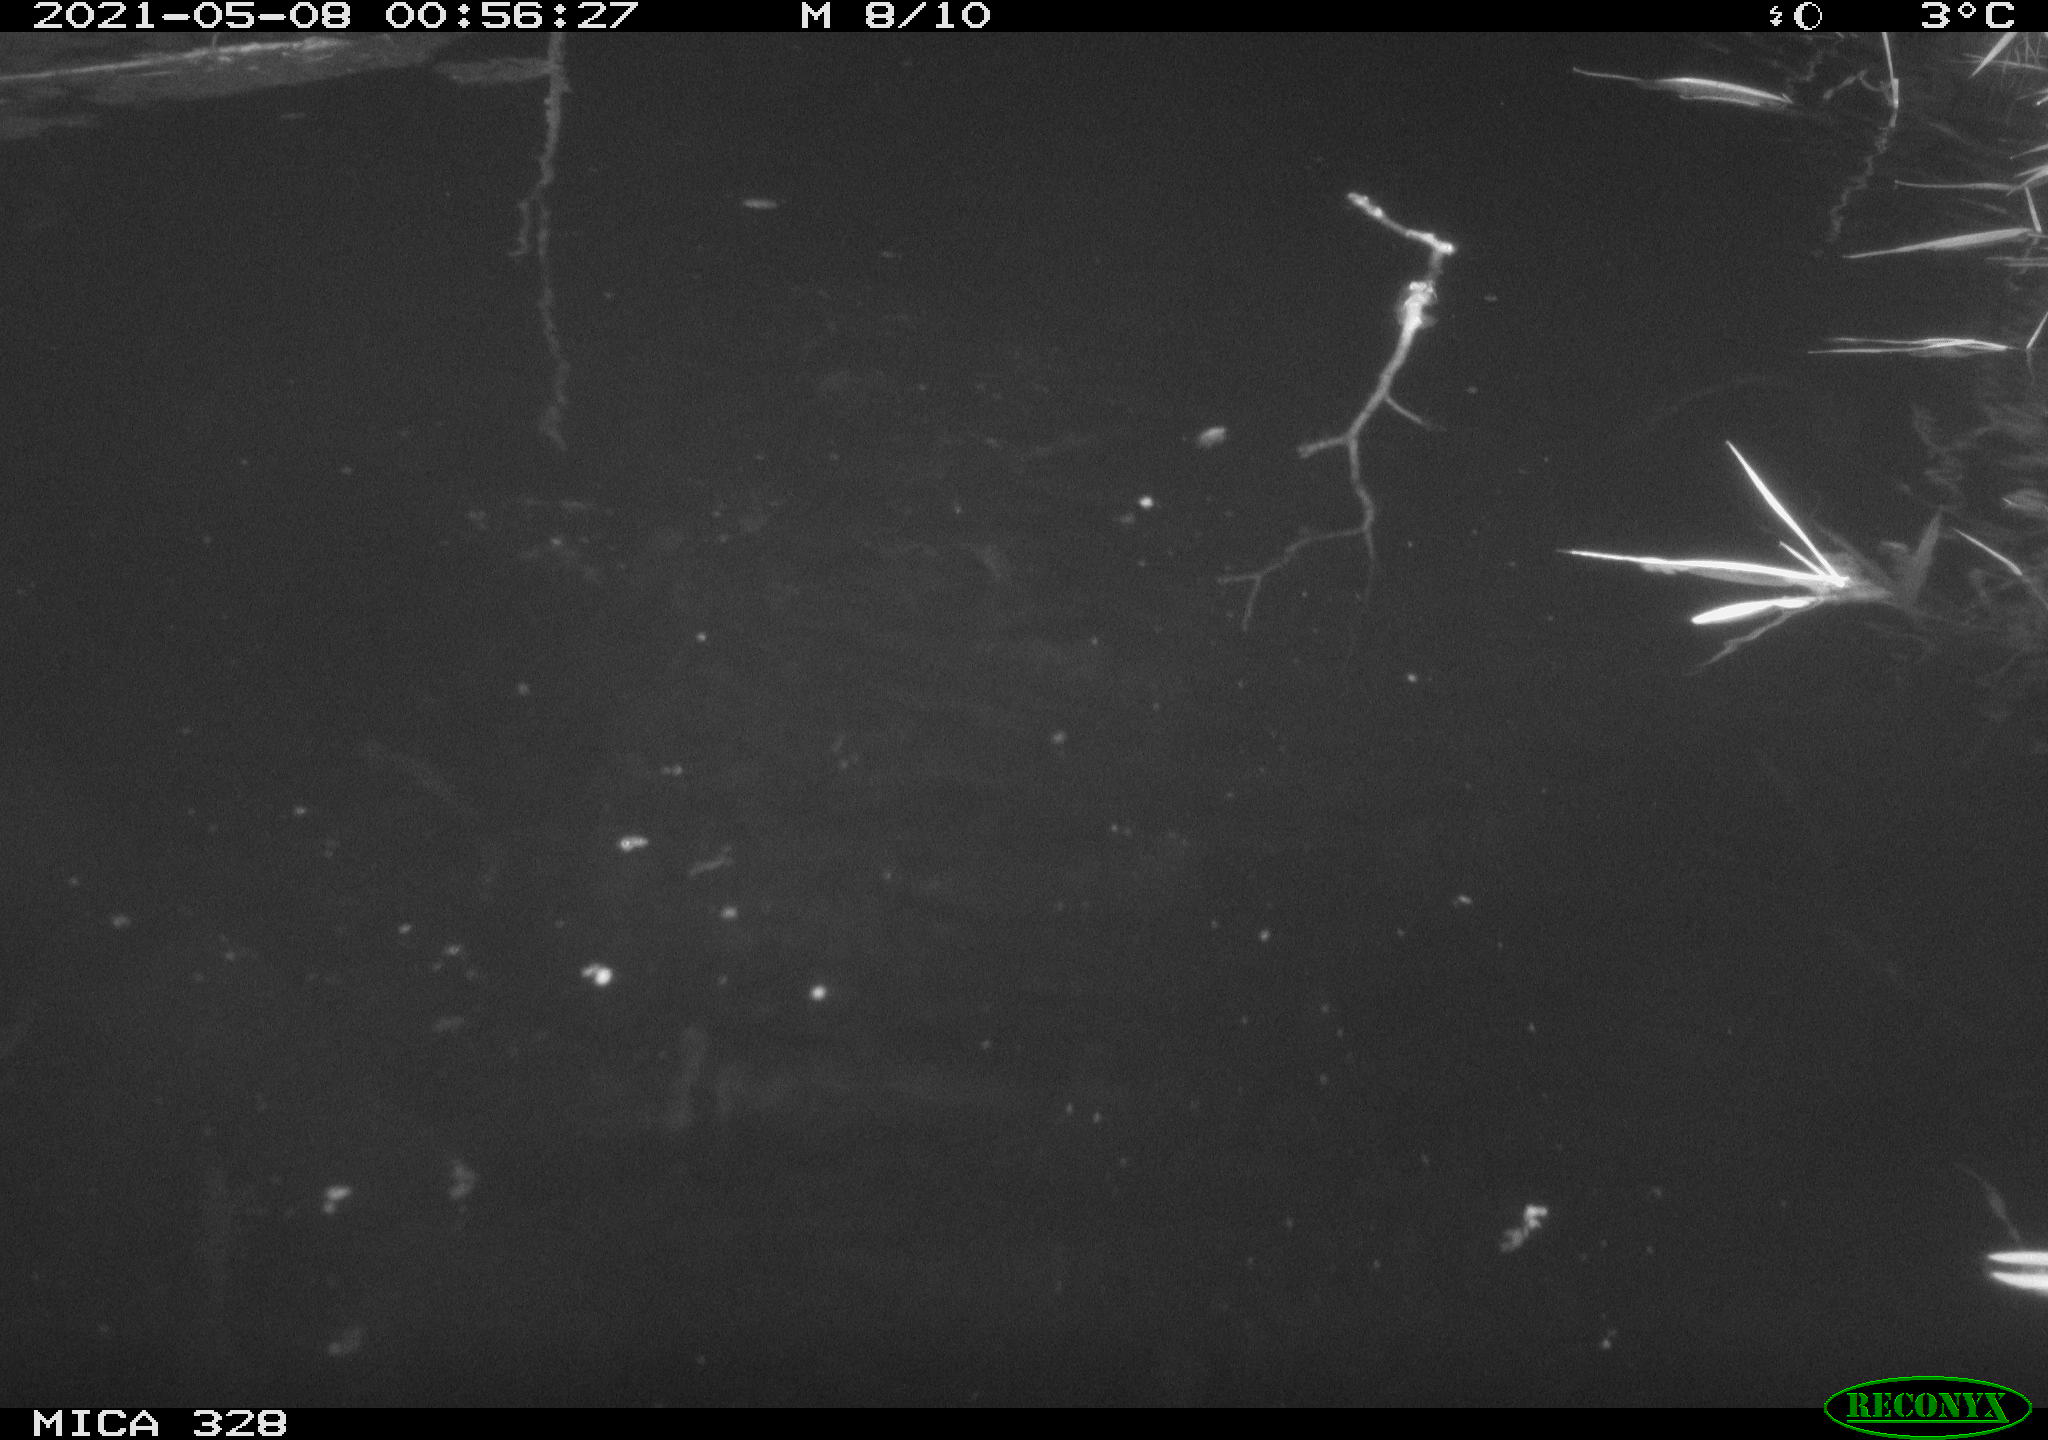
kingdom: Animalia
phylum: Chordata
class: Mammalia
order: Rodentia
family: Cricetidae
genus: Ondatra
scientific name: Ondatra zibethicus
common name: Muskrat
